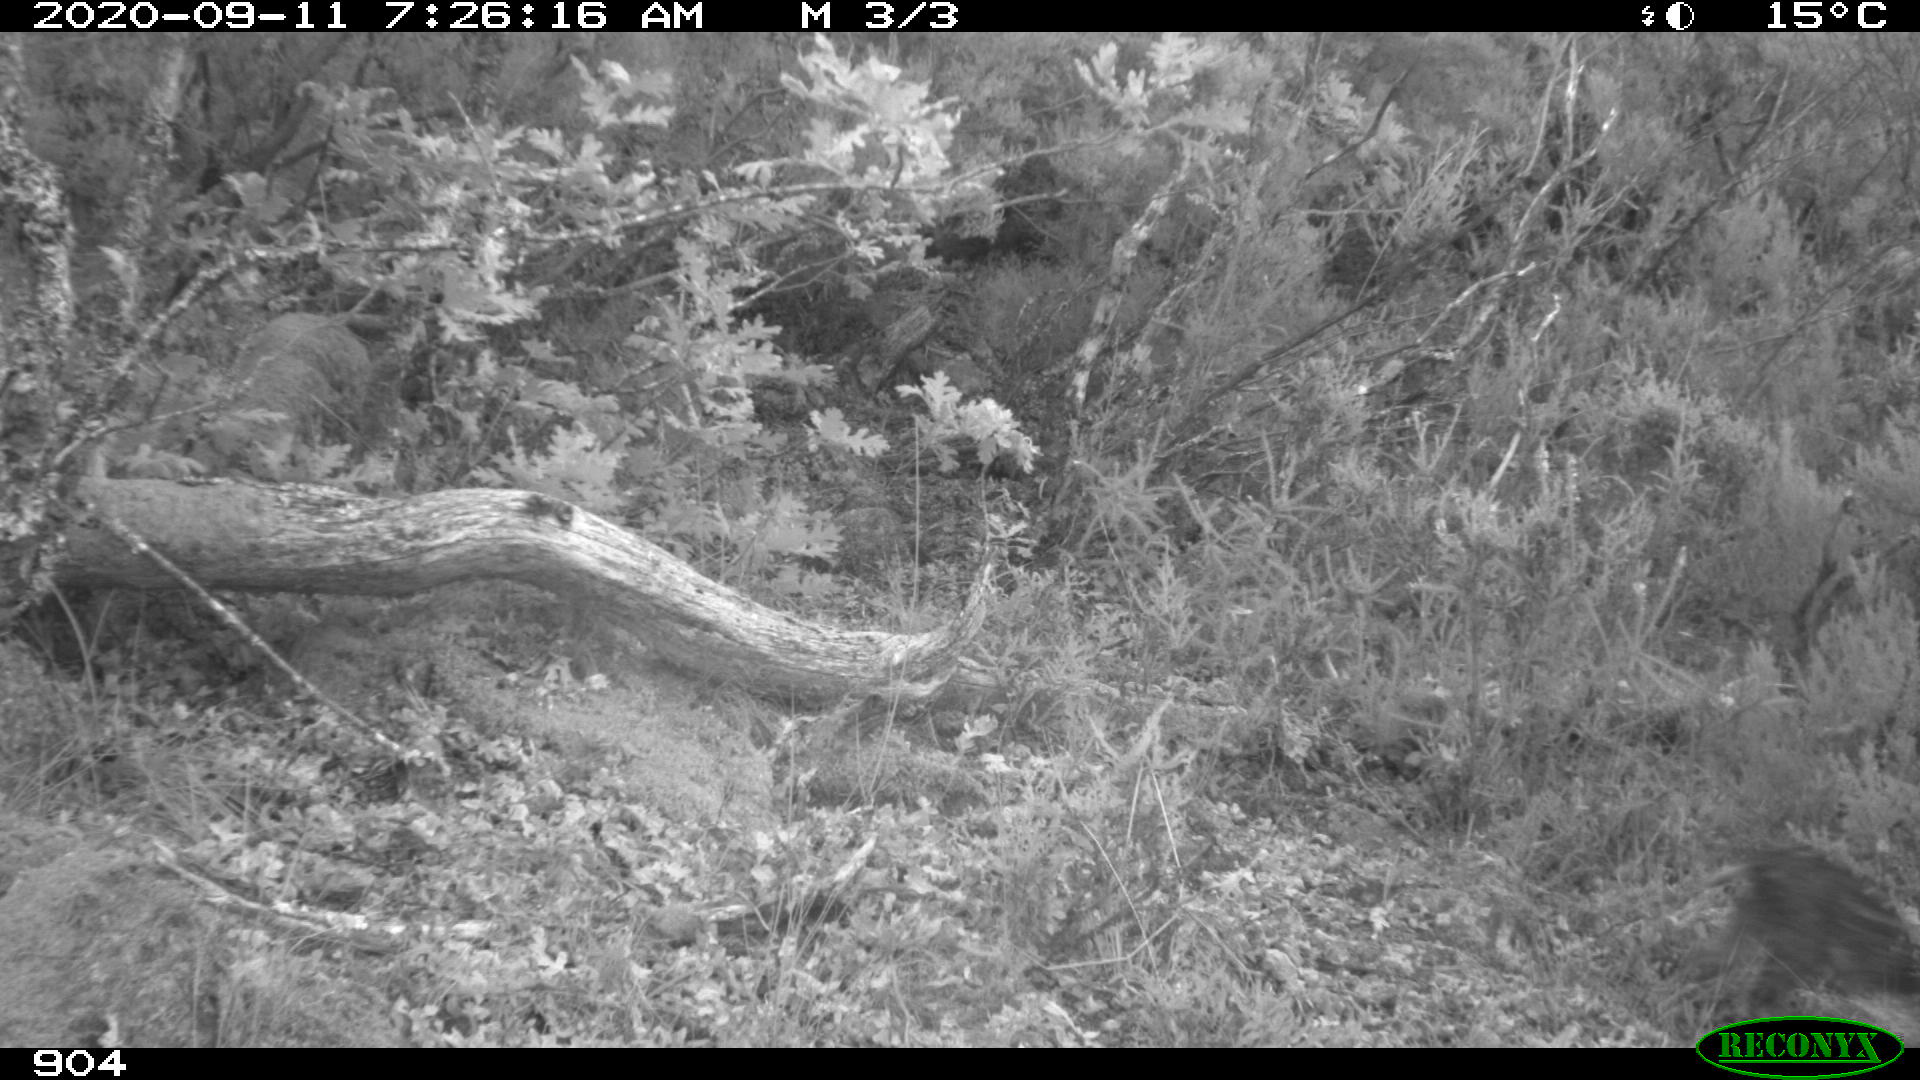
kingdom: Animalia
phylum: Chordata
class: Mammalia
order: Artiodactyla
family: Suidae
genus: Sus
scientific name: Sus scrofa
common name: Wild boar
